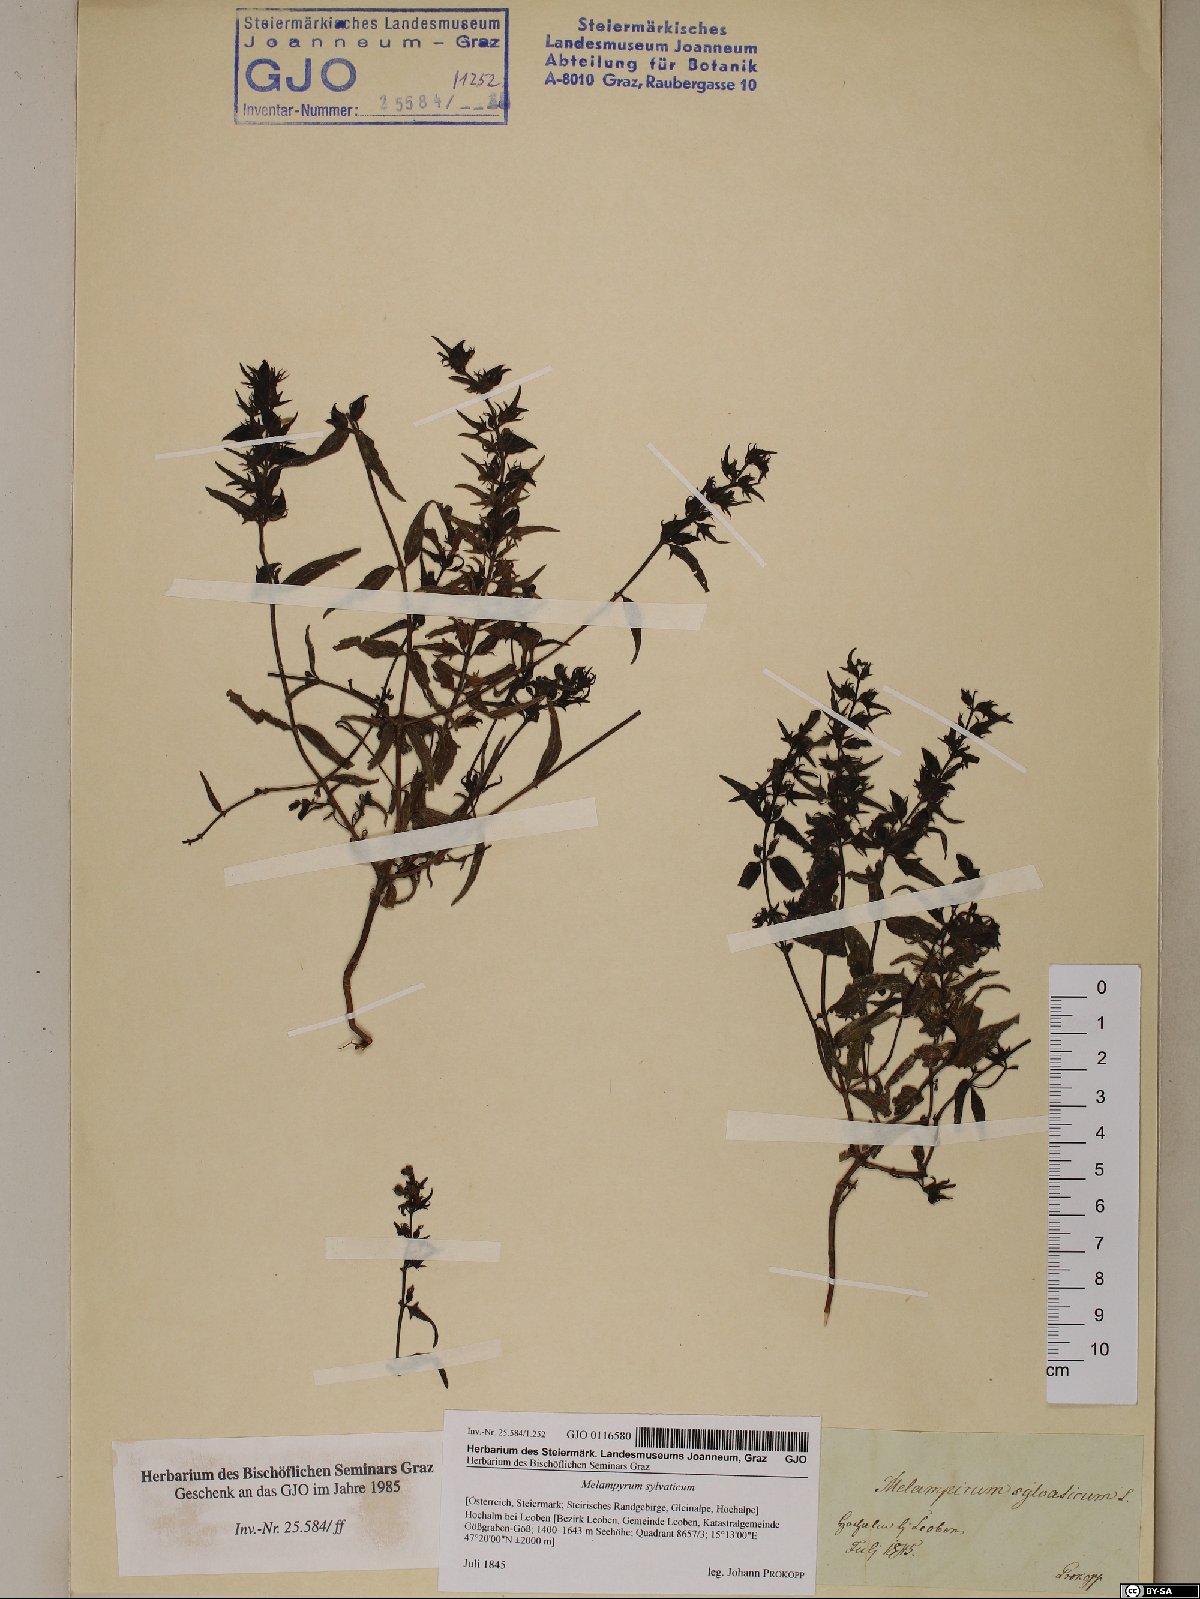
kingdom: Plantae
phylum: Tracheophyta
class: Magnoliopsida
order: Lamiales
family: Orobanchaceae
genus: Melampyrum
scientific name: Melampyrum sylvaticum
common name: Small cow-wheat
